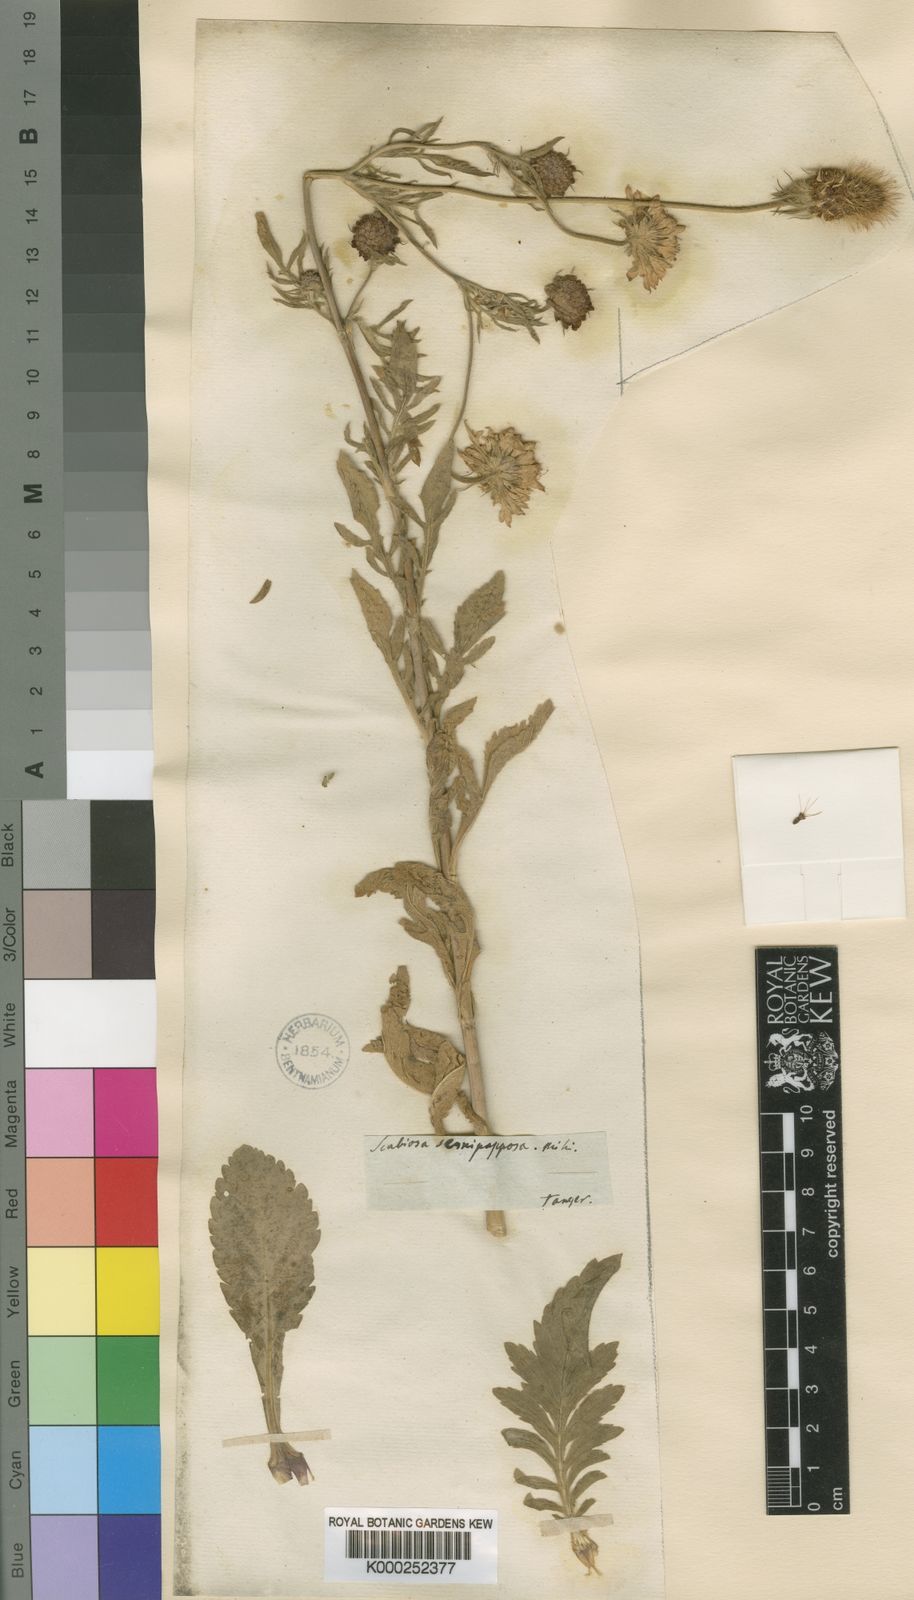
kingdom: Plantae
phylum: Tracheophyta
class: Magnoliopsida
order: Dipsacales
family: Caprifoliaceae
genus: Sixalix
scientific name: Sixalix semipapposa
